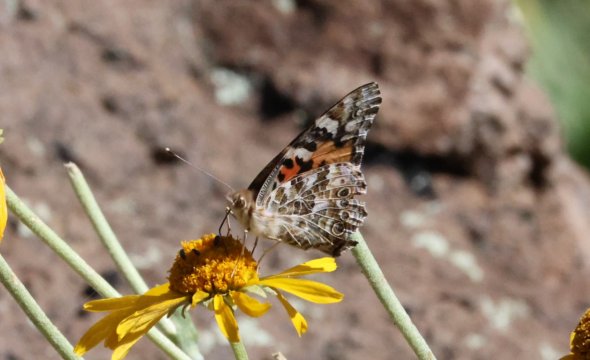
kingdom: Animalia
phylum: Arthropoda
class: Insecta
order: Lepidoptera
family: Nymphalidae
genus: Vanessa
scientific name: Vanessa cardui
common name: Painted Lady
